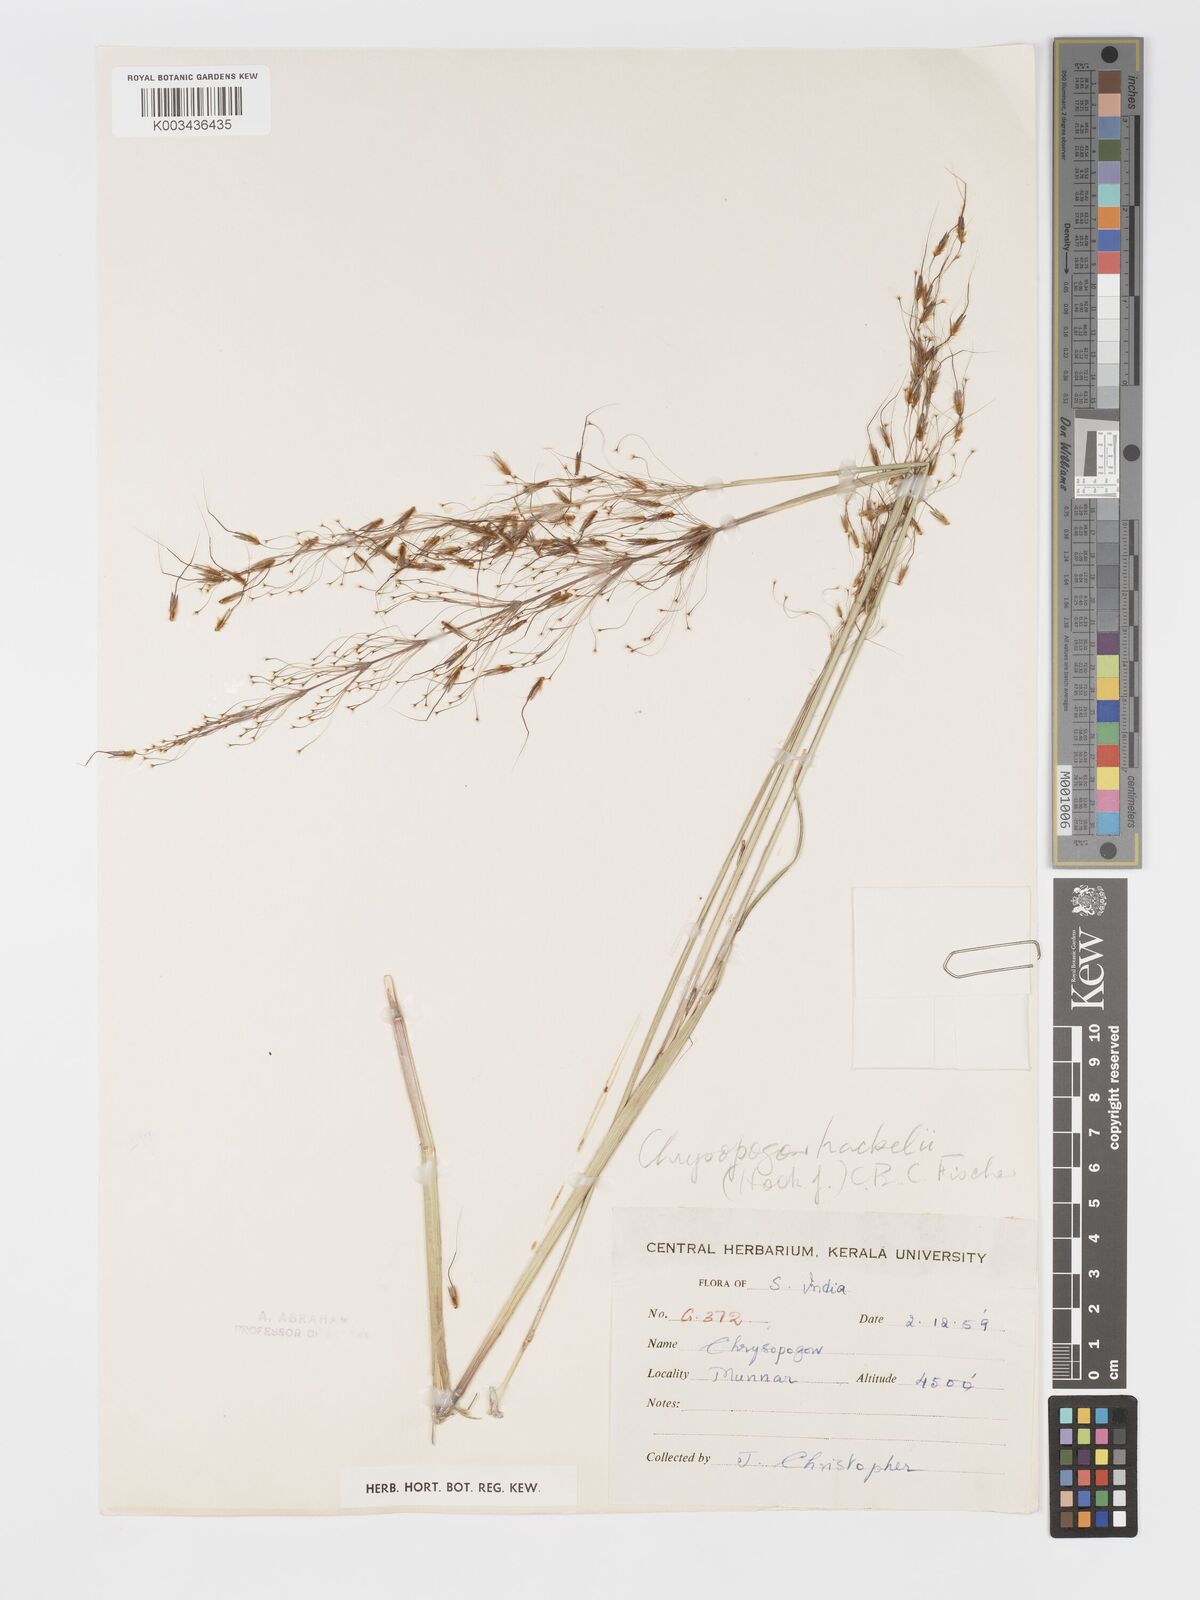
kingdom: Plantae
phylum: Tracheophyta
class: Liliopsida
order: Poales
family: Poaceae
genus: Chrysopogon
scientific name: Chrysopogon hackelii
